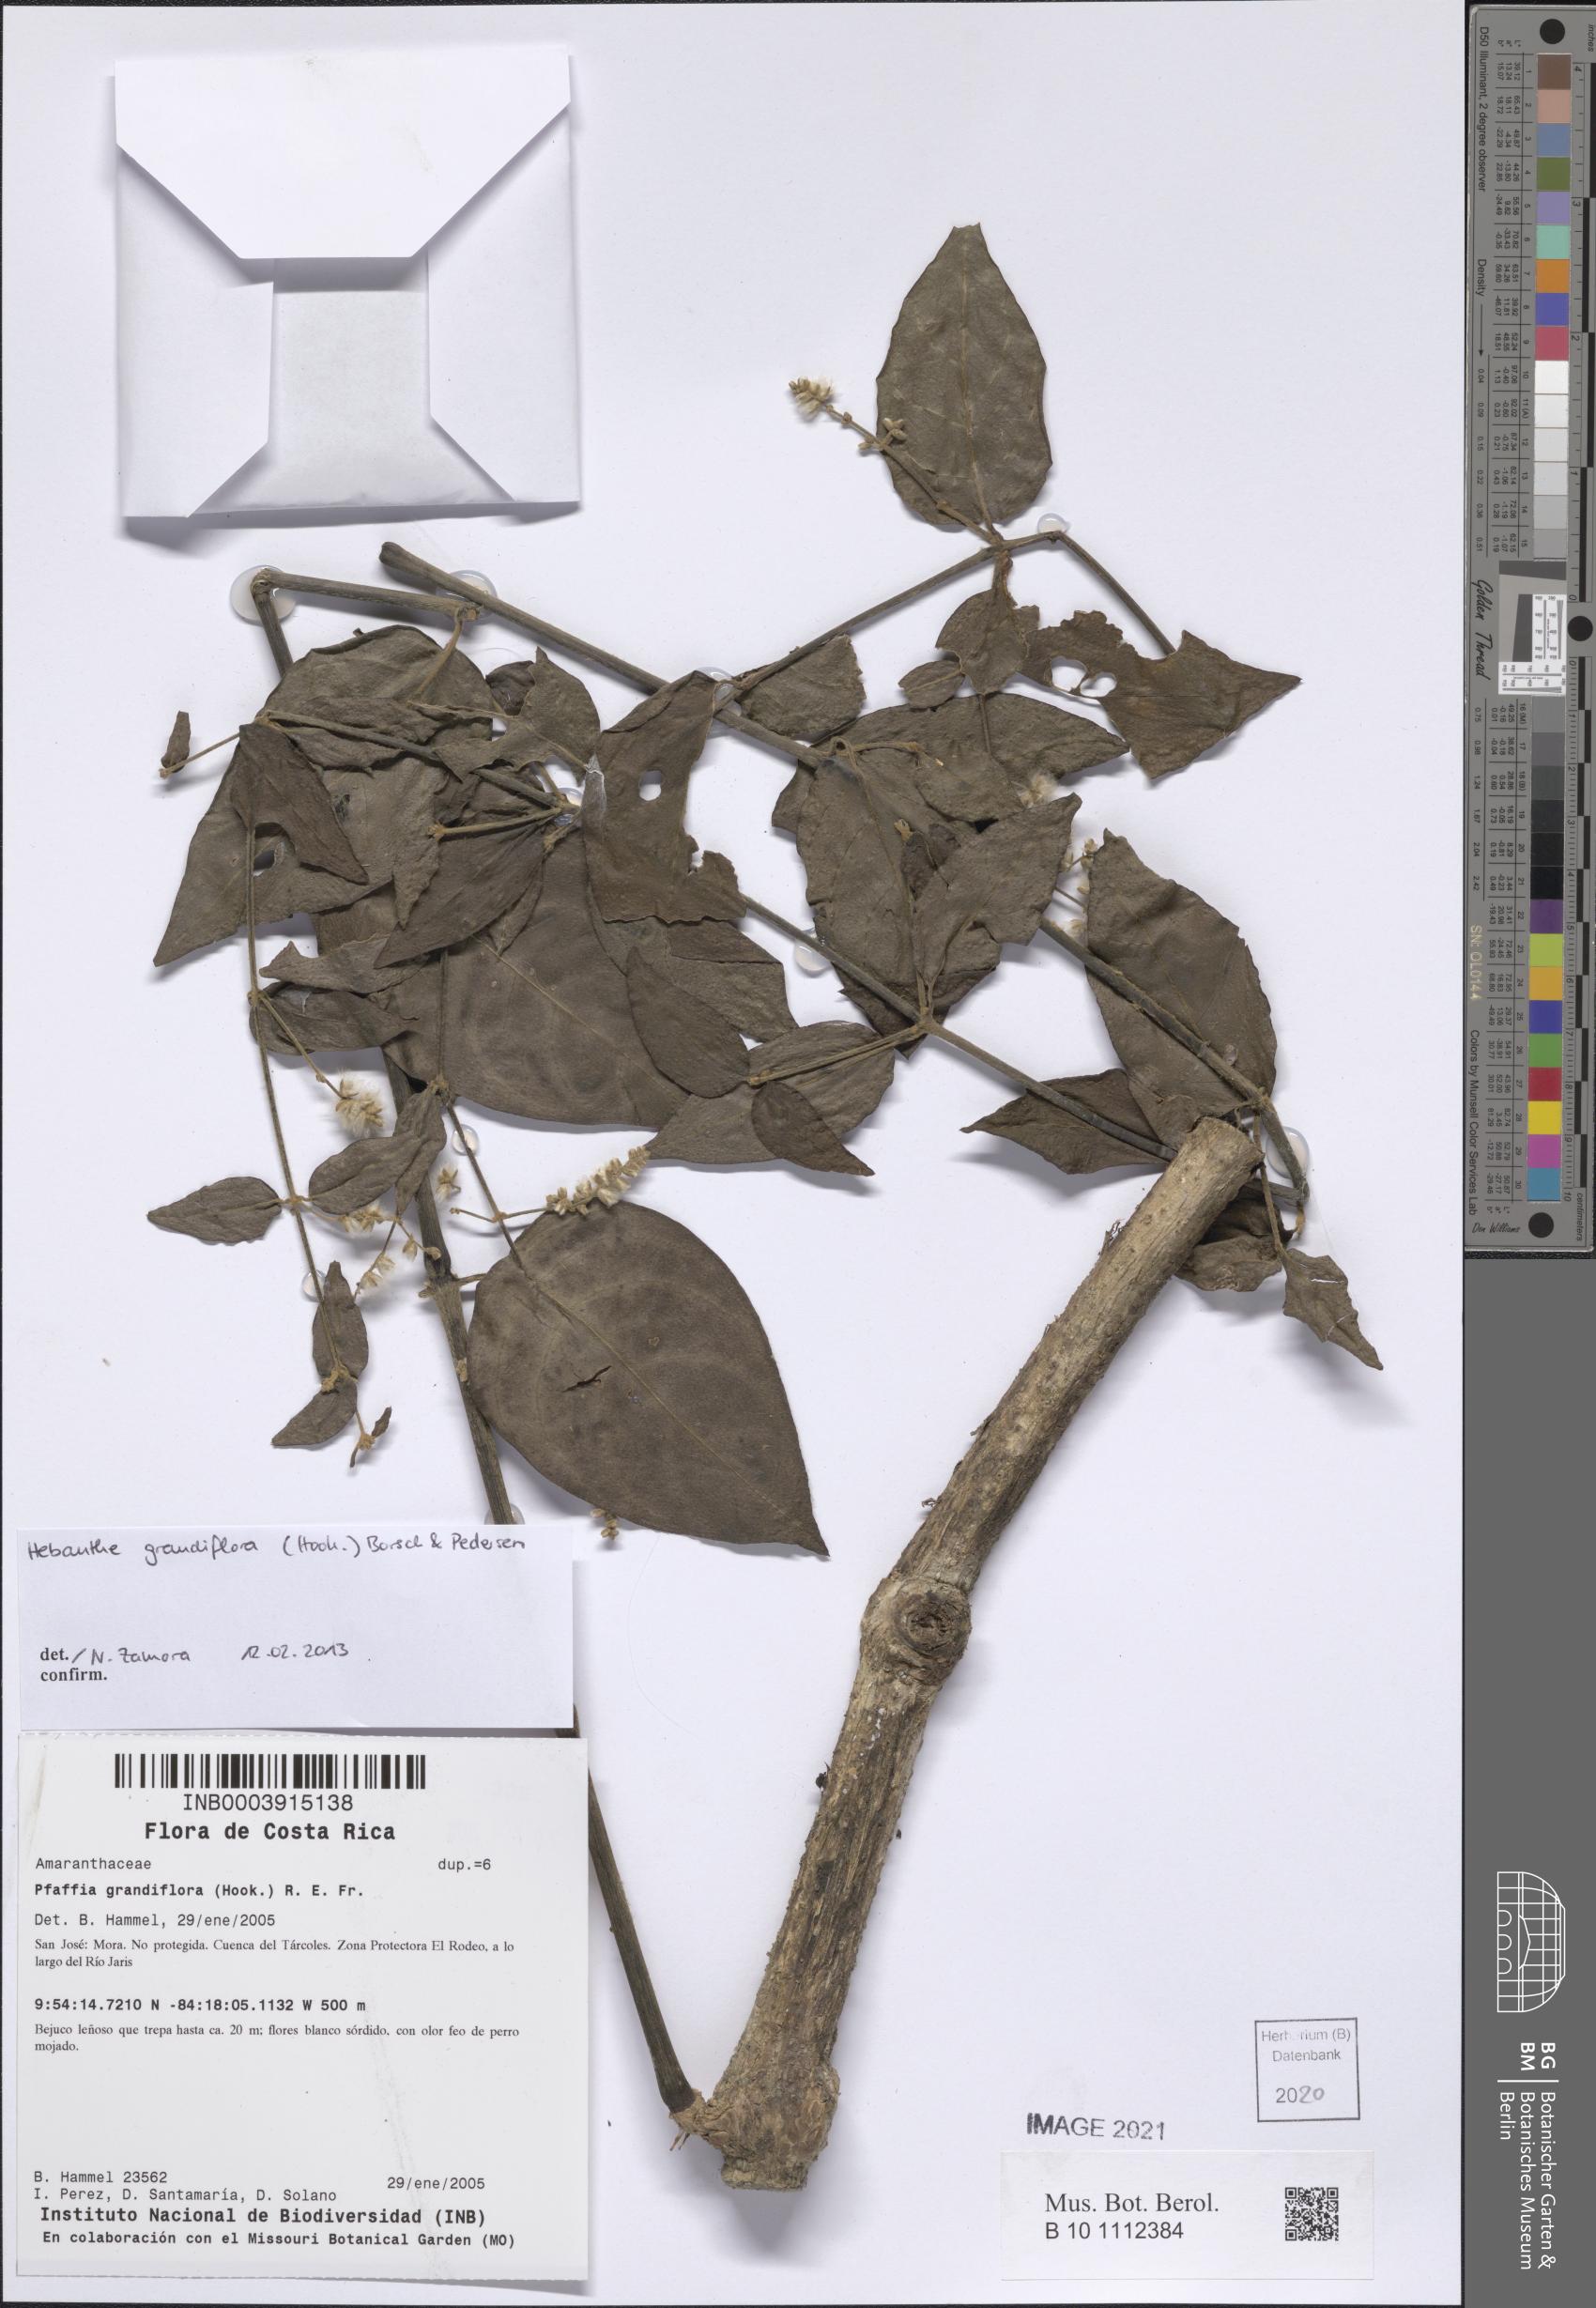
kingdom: Plantae
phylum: Tracheophyta
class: Magnoliopsida
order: Caryophyllales
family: Amaranthaceae
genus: Hebanthe
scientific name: Hebanthe grandiflora
